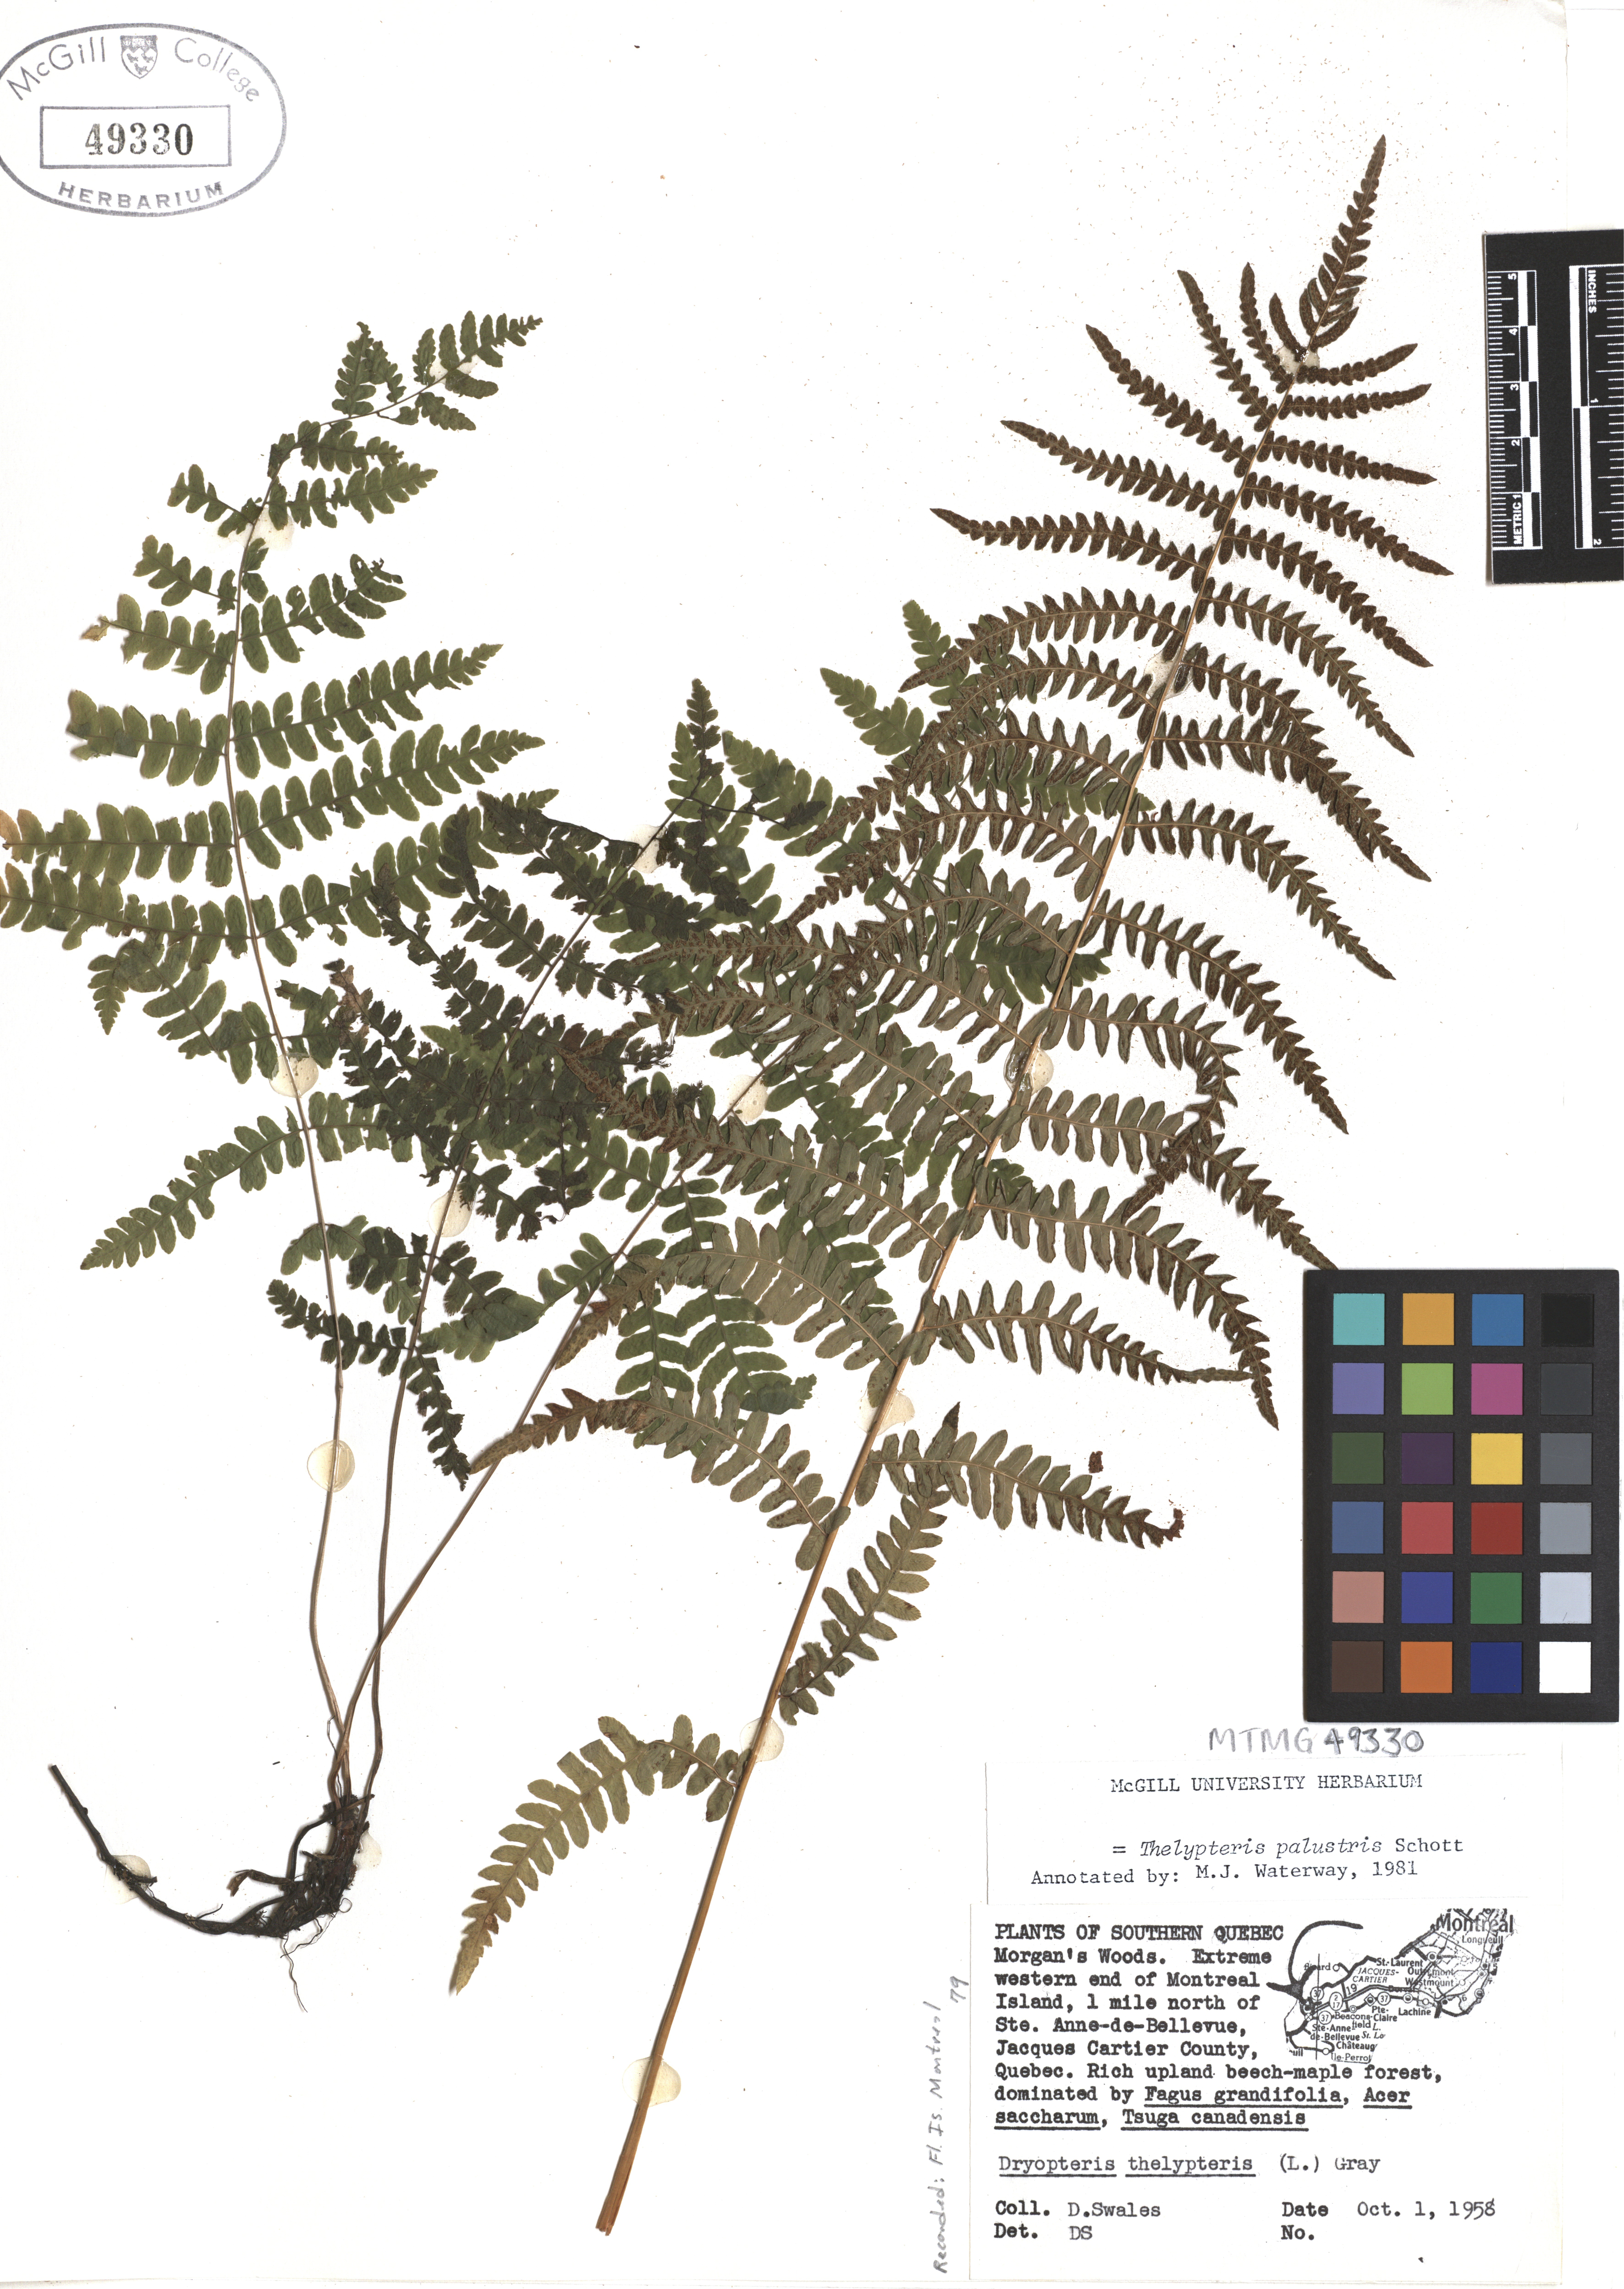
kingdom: Plantae
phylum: Tracheophyta
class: Polypodiopsida
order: Polypodiales
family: Thelypteridaceae
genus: Thelypteris
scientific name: Thelypteris palustris
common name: Marsh fern
